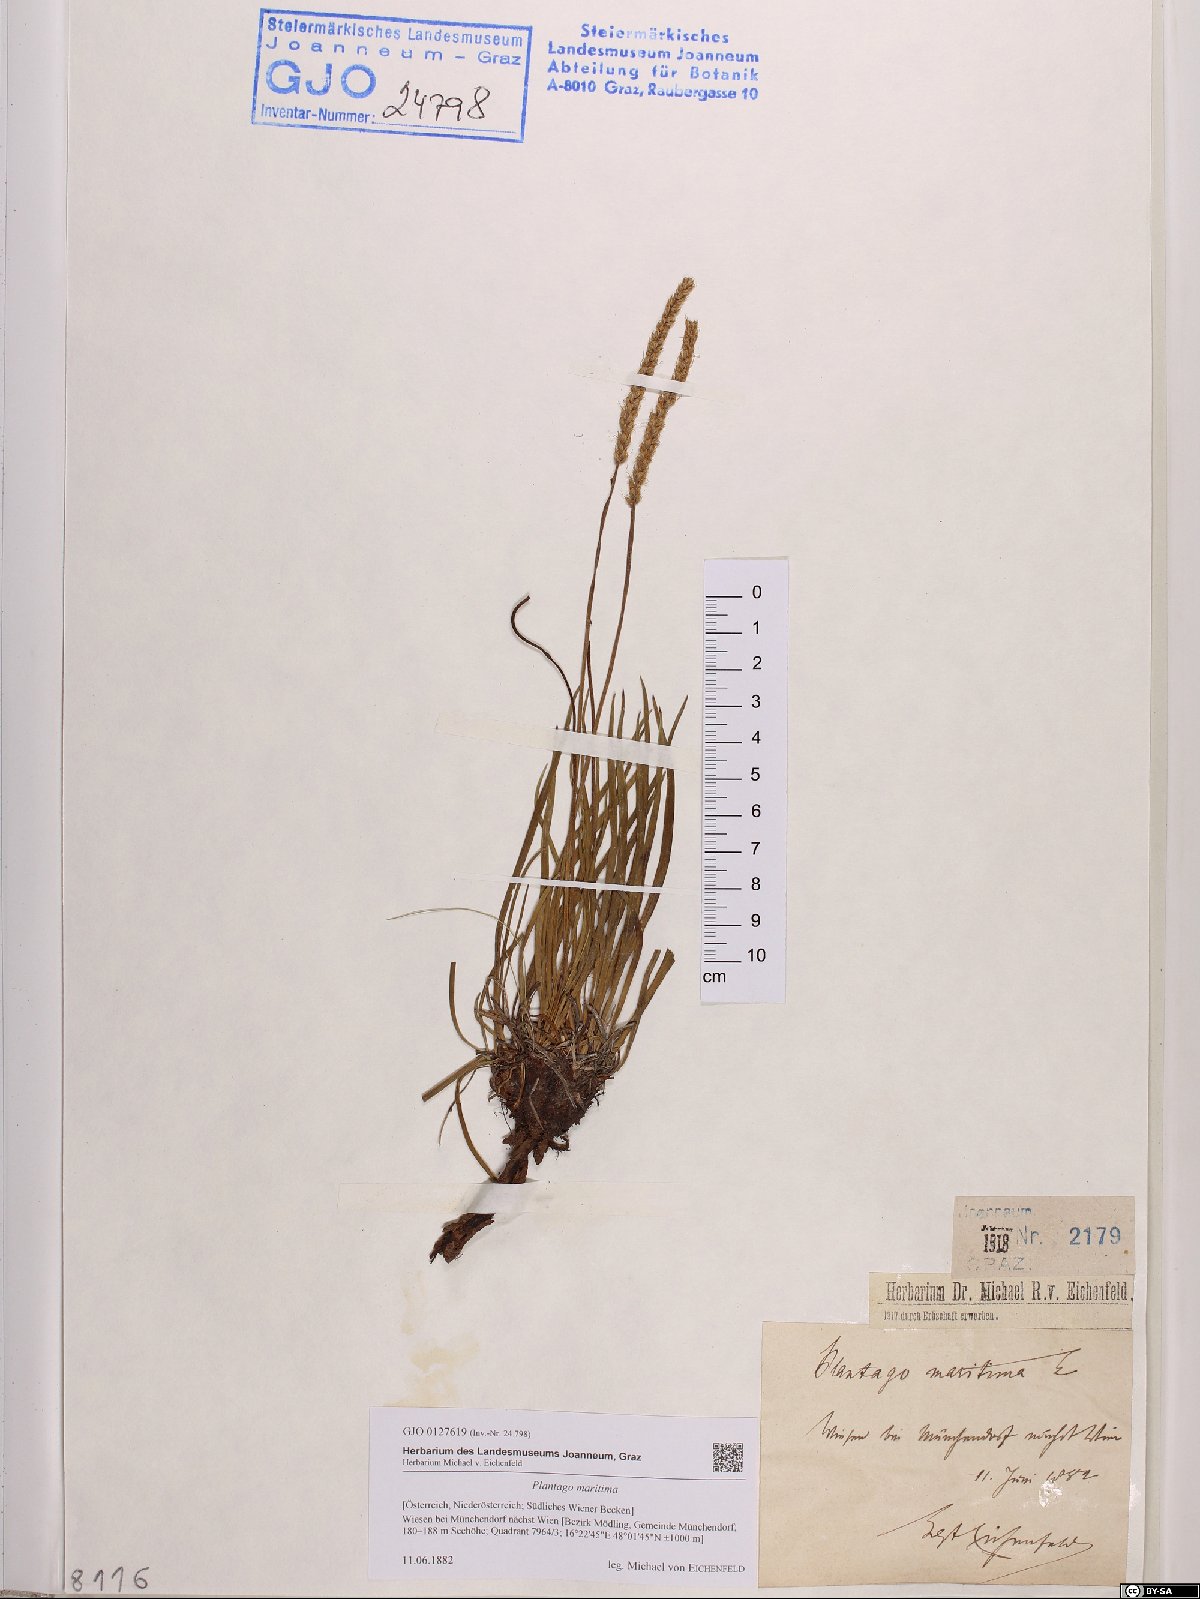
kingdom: Plantae
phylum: Tracheophyta
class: Magnoliopsida
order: Lamiales
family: Plantaginaceae
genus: Plantago
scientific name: Plantago maritima
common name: Sea plantain
